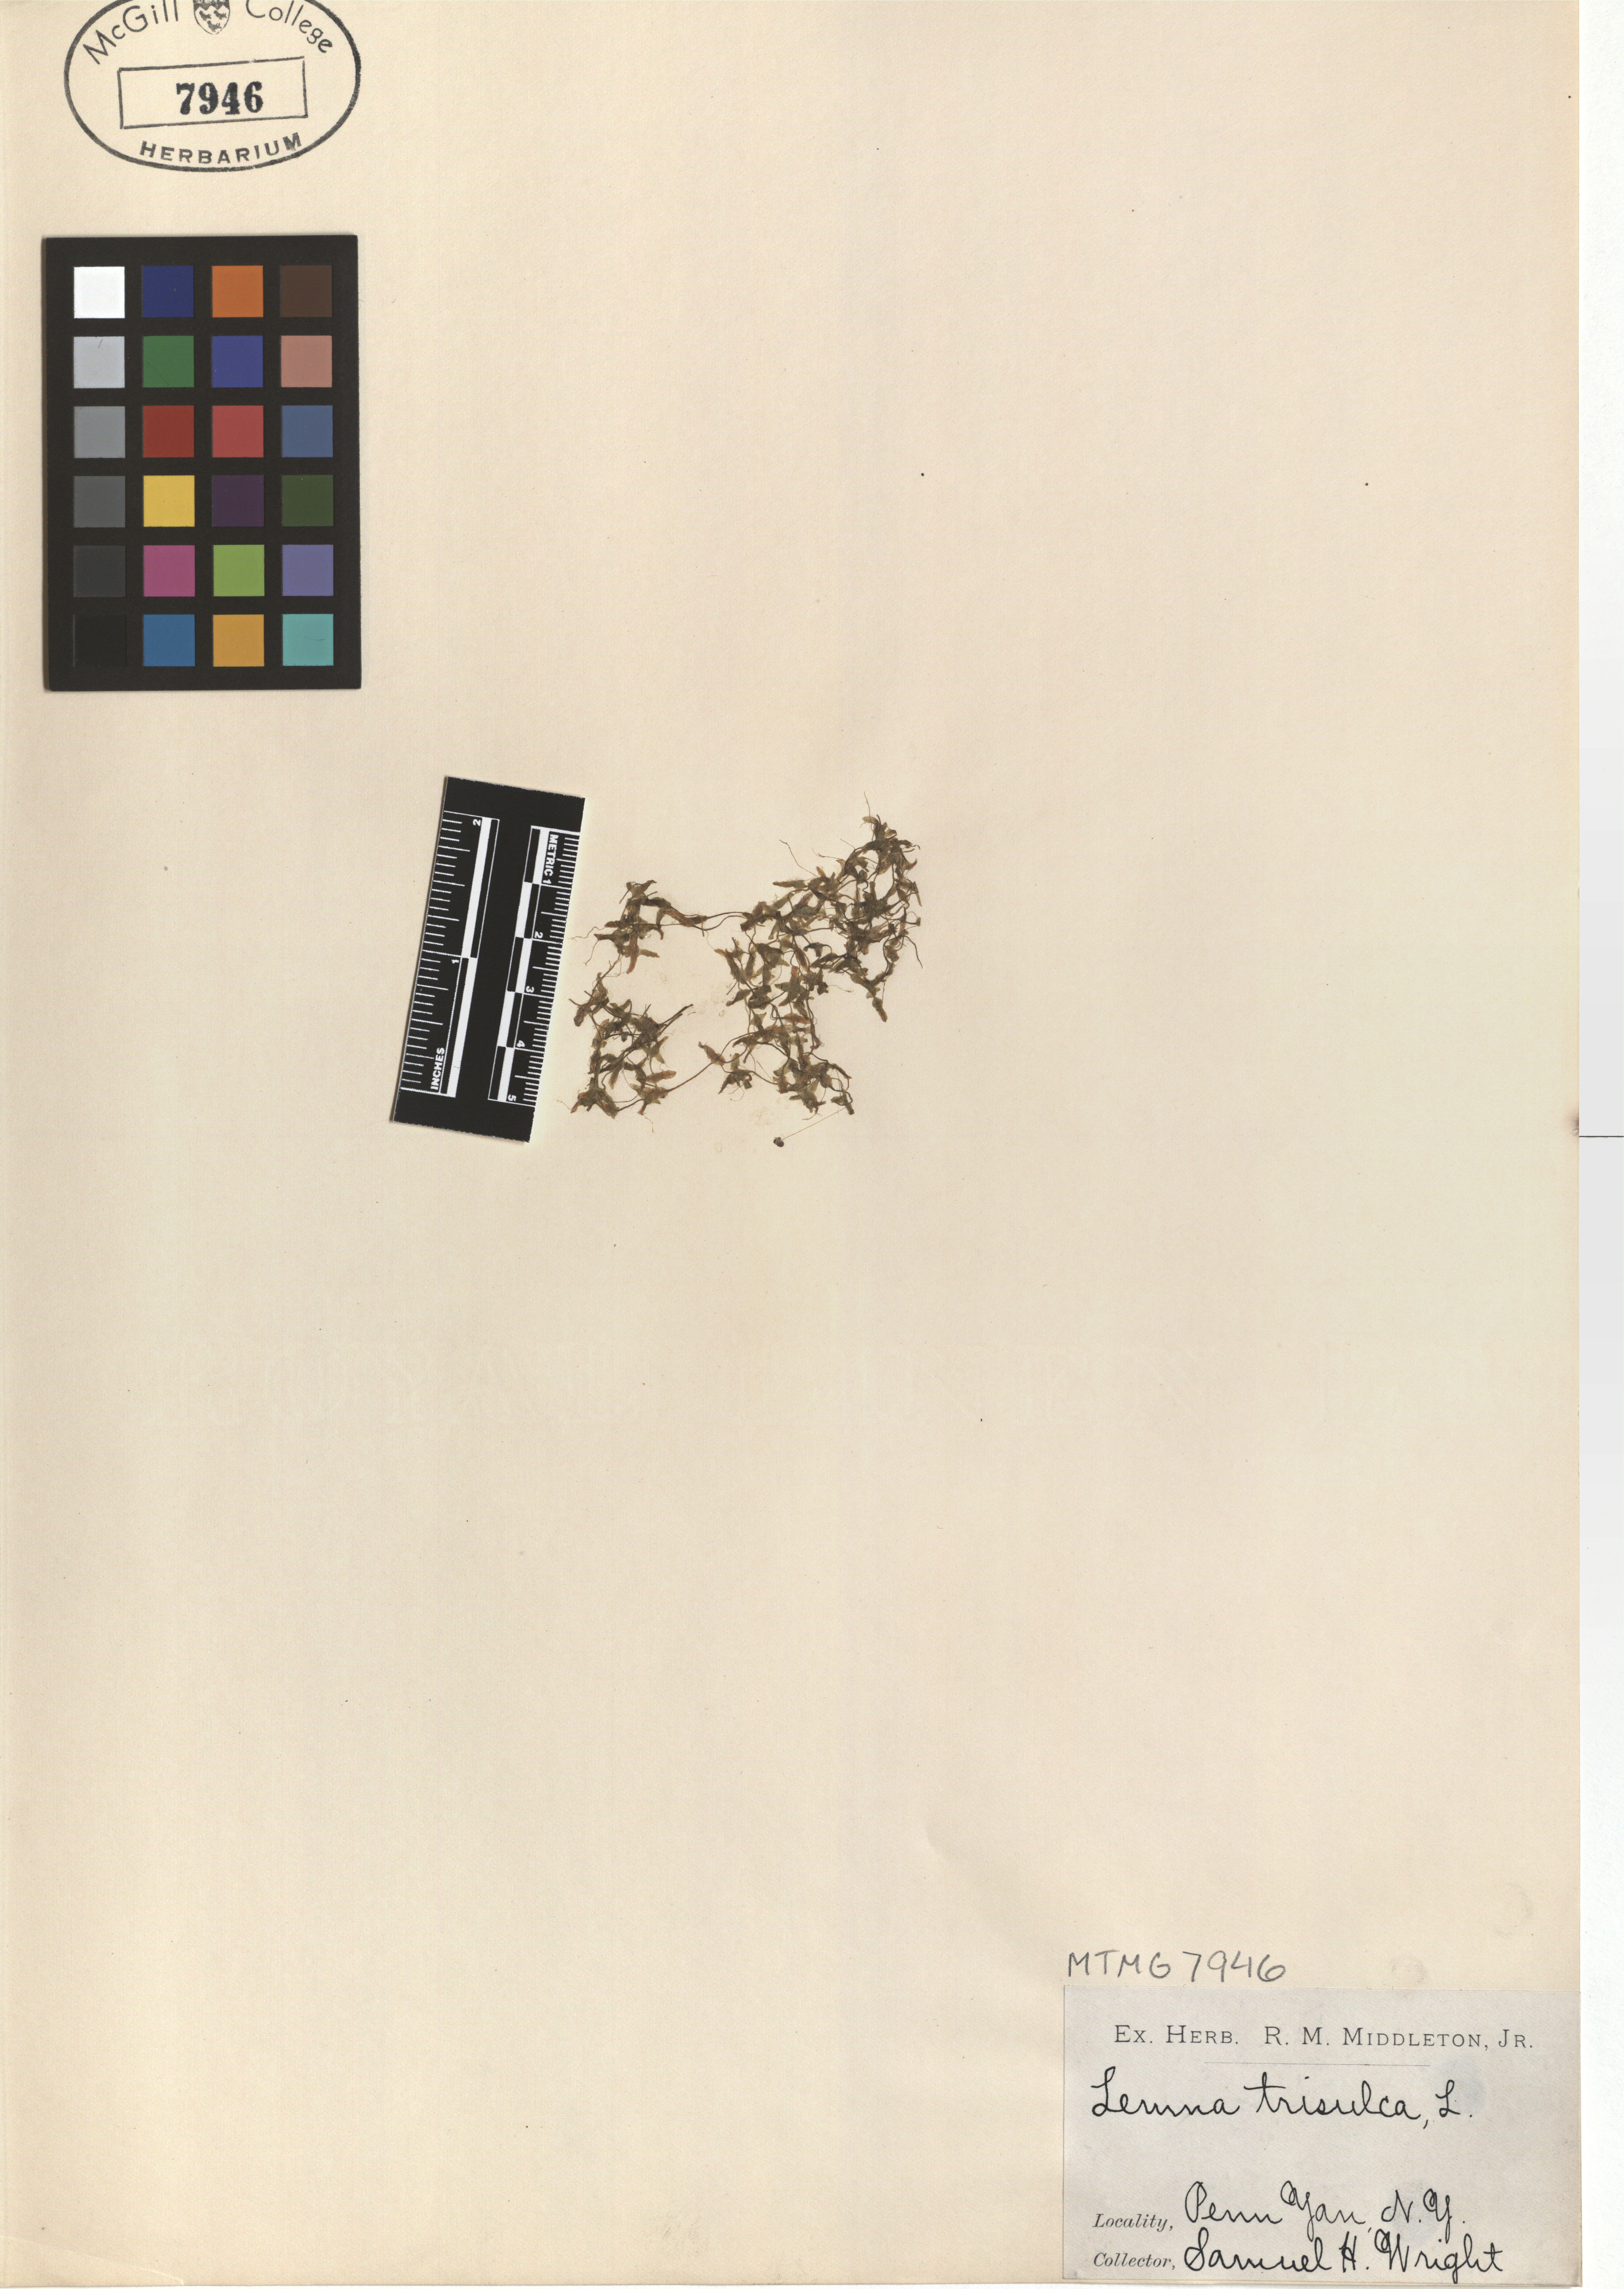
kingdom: Plantae
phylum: Tracheophyta
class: Liliopsida
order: Alismatales
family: Araceae
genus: Lemna
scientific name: Lemna trisulca
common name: Ivy-leaved duckweed
